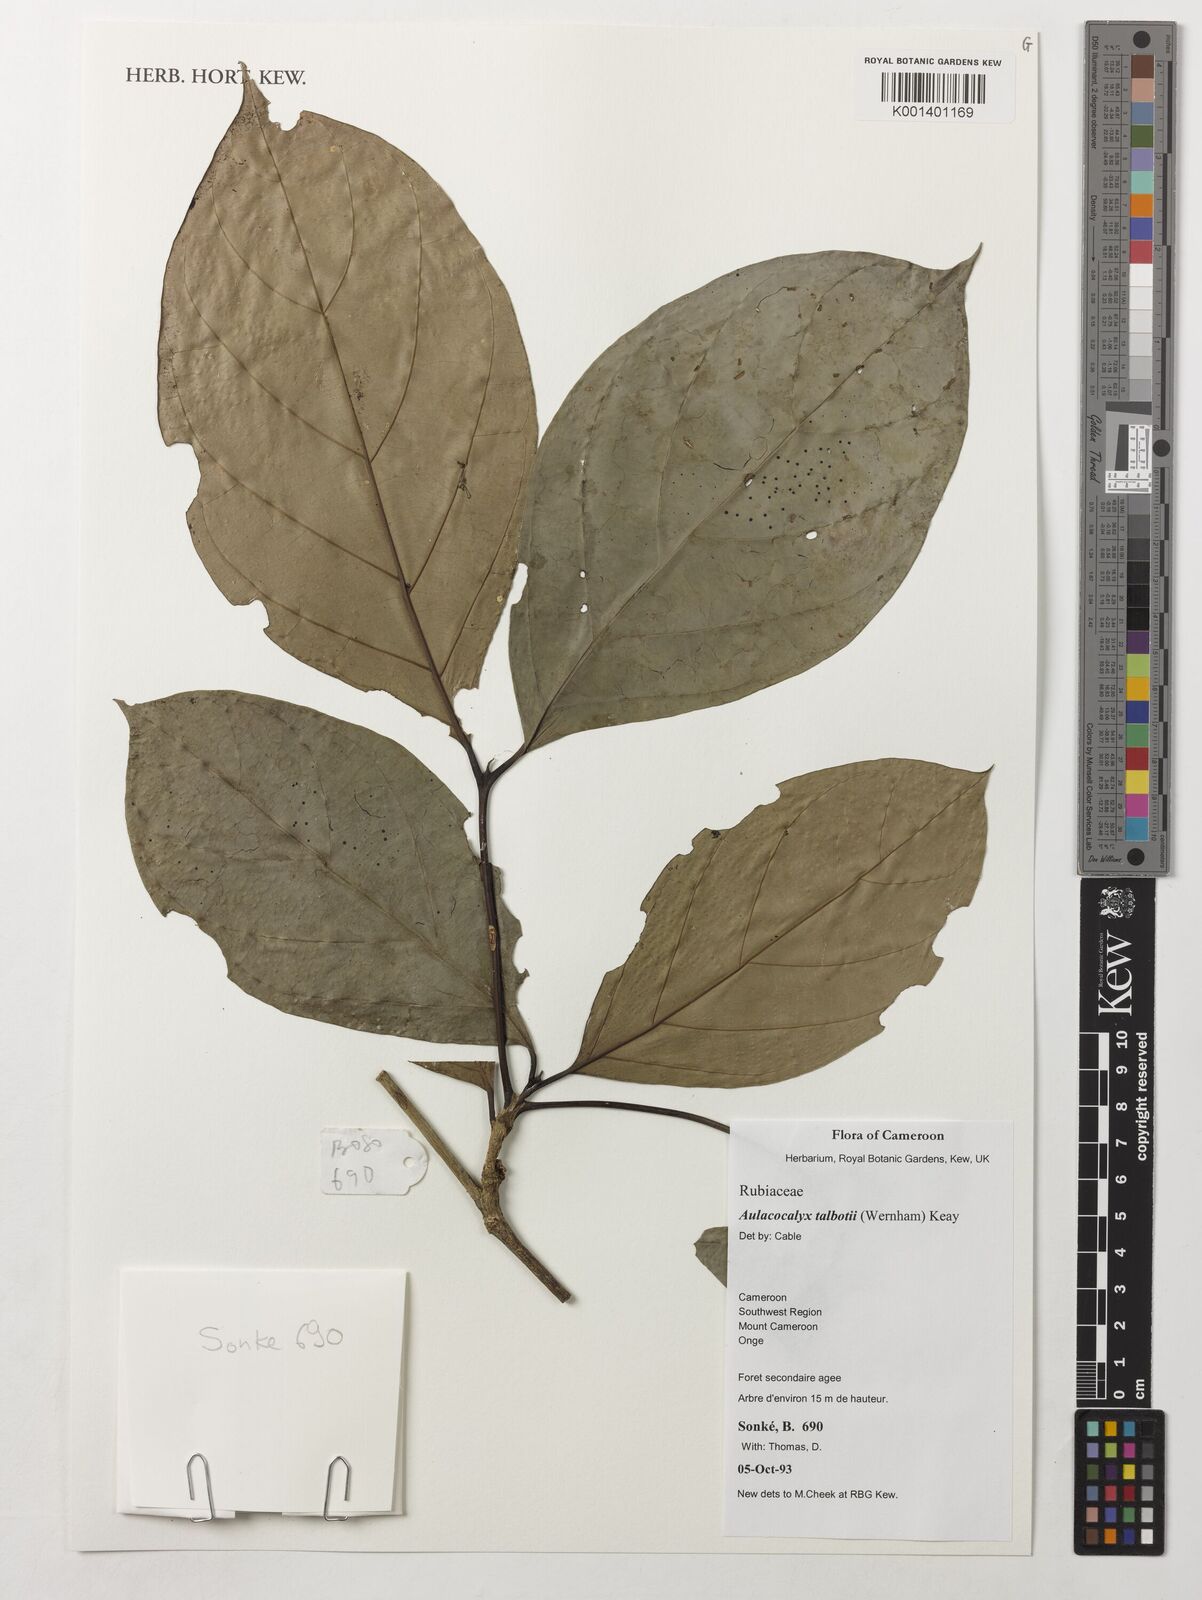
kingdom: Plantae
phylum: Tracheophyta
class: Magnoliopsida
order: Gentianales
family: Rubiaceae
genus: Aulacocalyx
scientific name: Aulacocalyx talbotii
